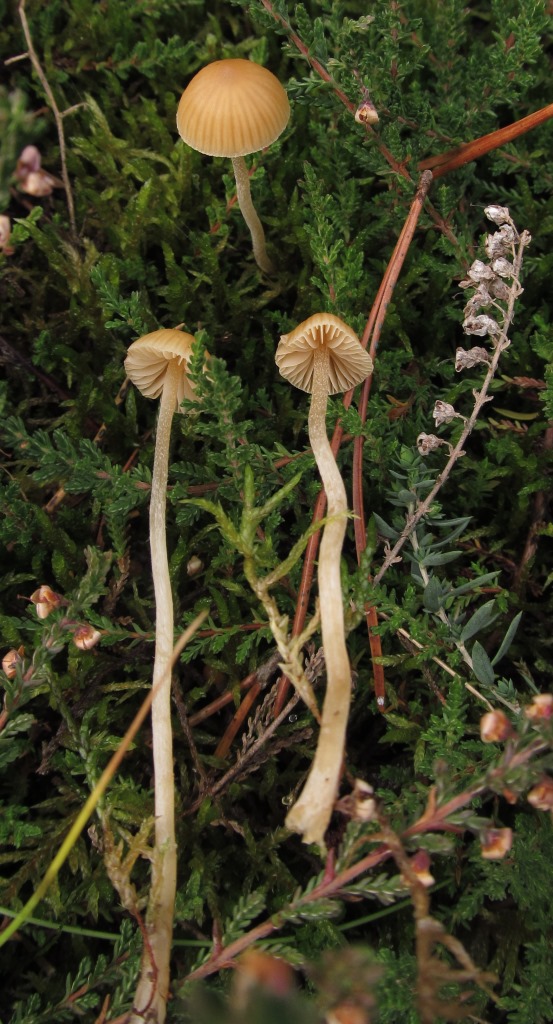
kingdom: Fungi
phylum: Basidiomycota
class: Agaricomycetes
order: Agaricales
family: Hymenogastraceae
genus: Galerina
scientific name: Galerina clavata
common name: kær-hjelmhat
